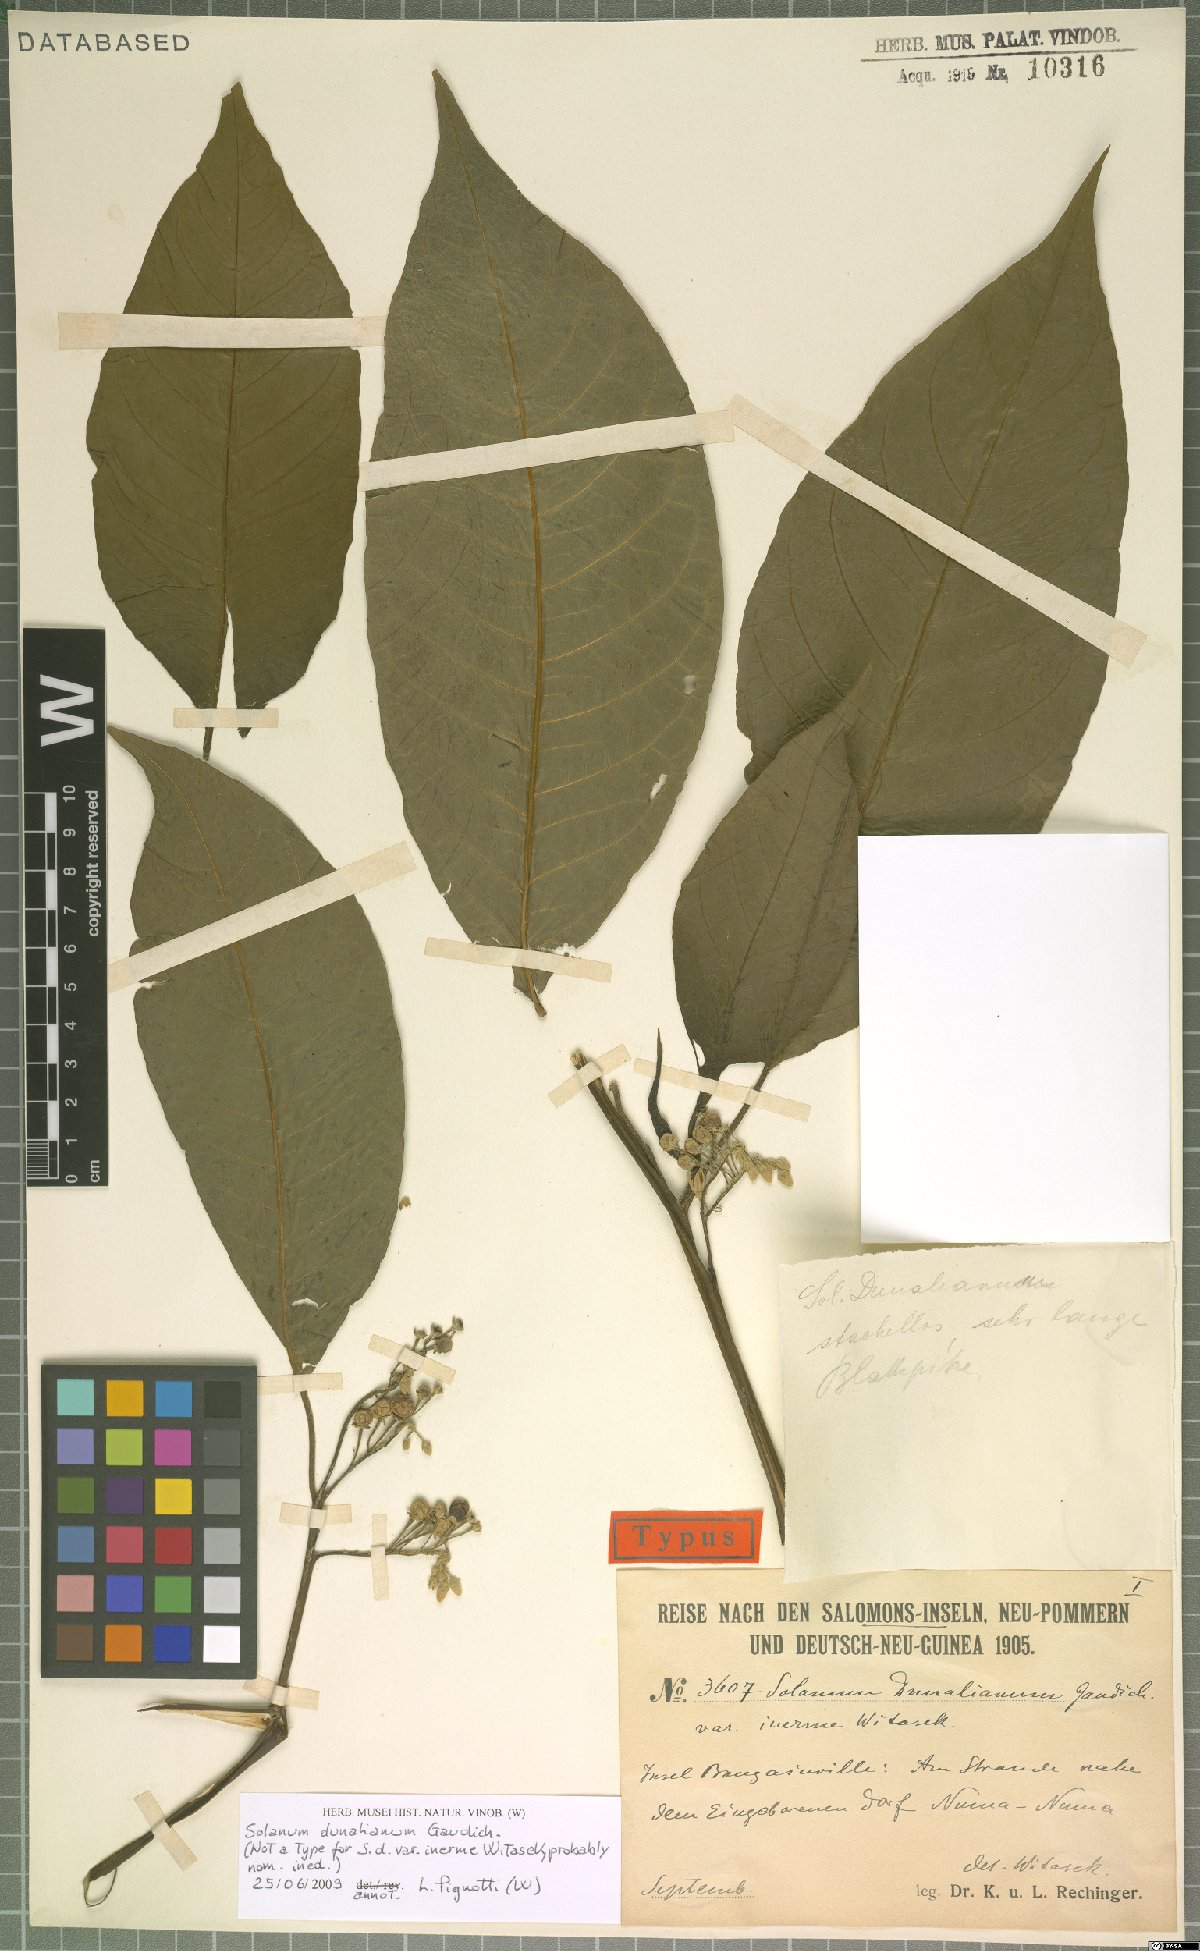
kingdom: Plantae
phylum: Tracheophyta
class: Magnoliopsida
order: Solanales
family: Solanaceae
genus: Solanum
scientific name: Solanum dunalianum
